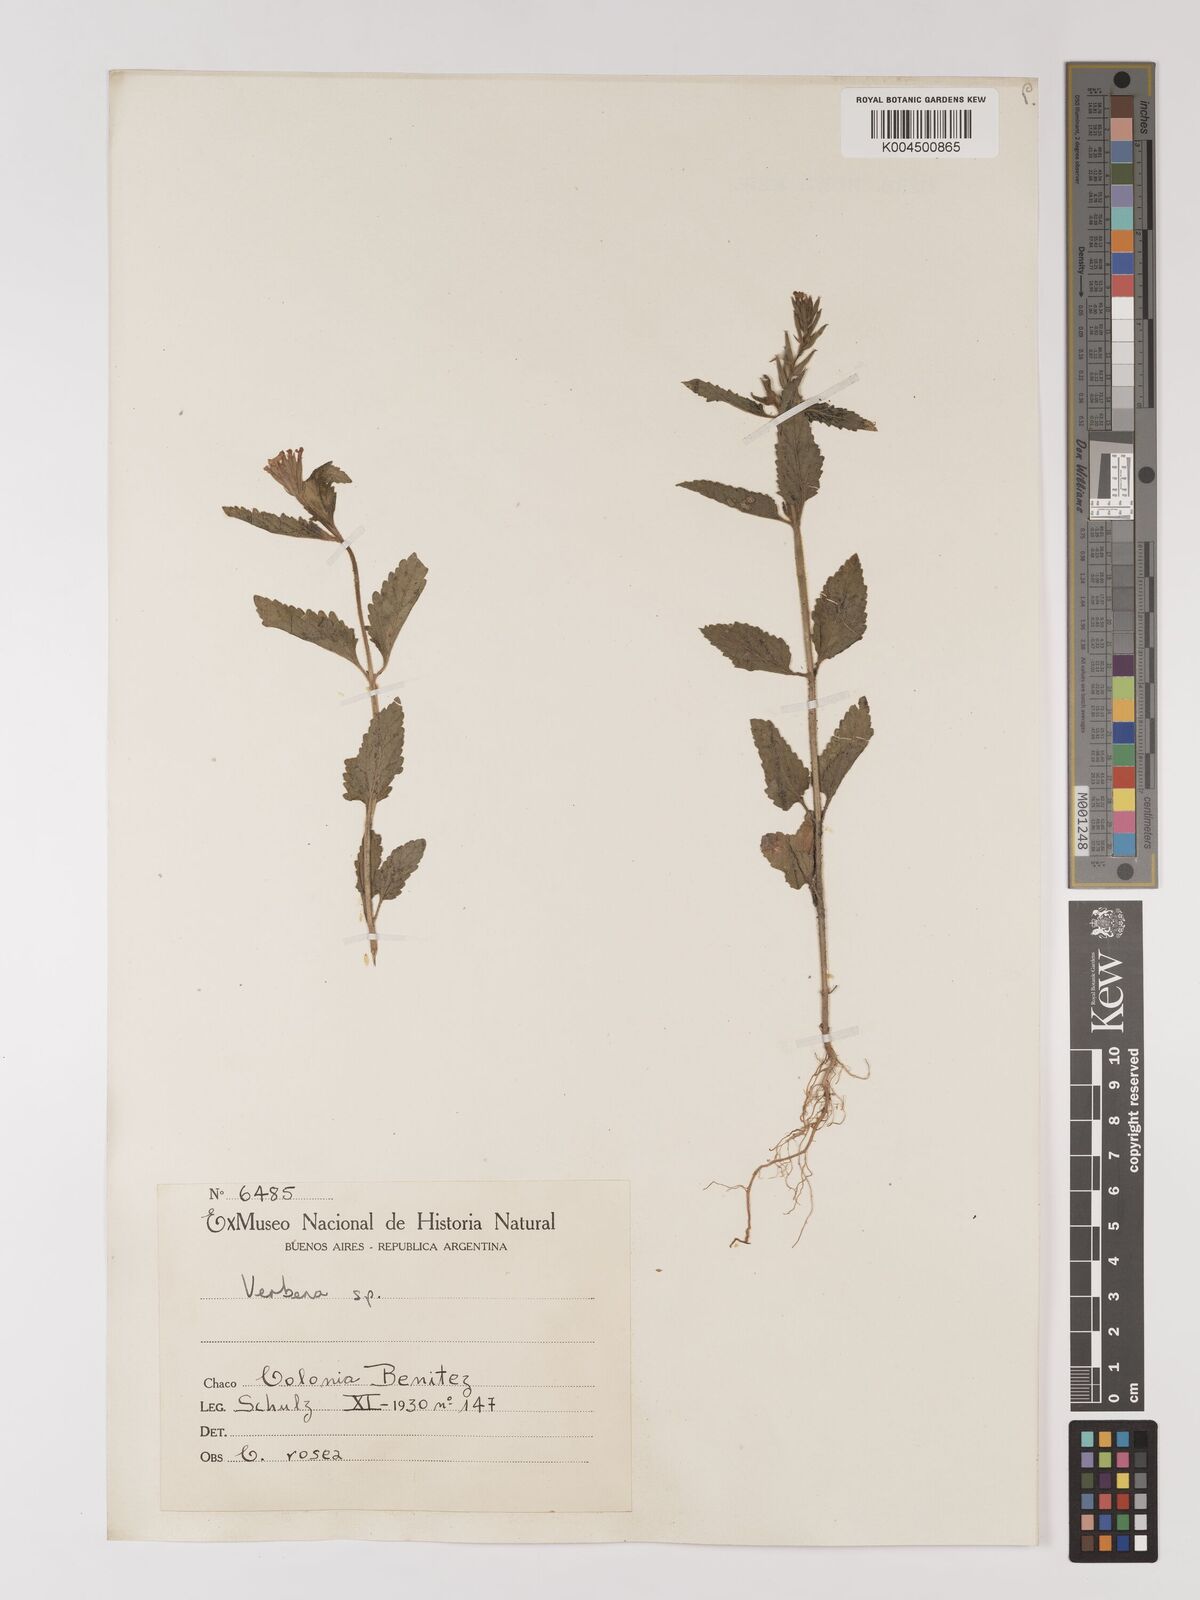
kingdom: Plantae
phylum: Tracheophyta
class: Magnoliopsida
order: Lamiales
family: Verbenaceae
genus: Verbena
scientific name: Verbena
